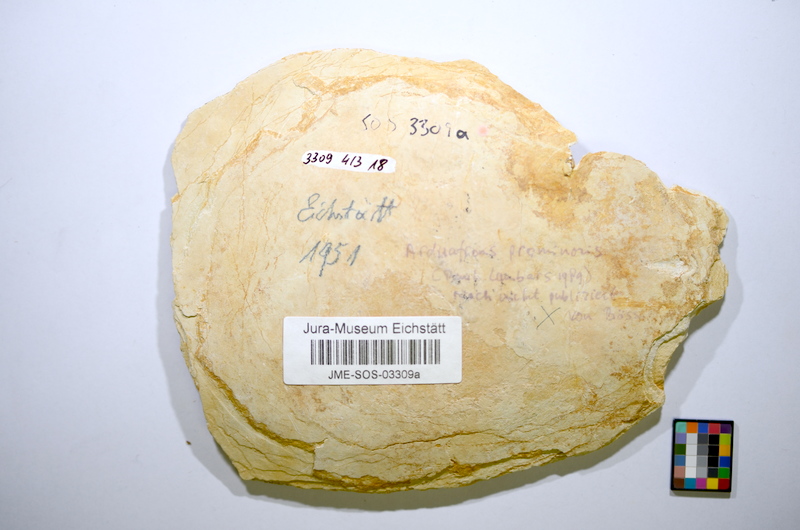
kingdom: Animalia
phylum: Chordata
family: Mesturidae
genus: Arduafrons
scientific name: Arduafrons prominoris
